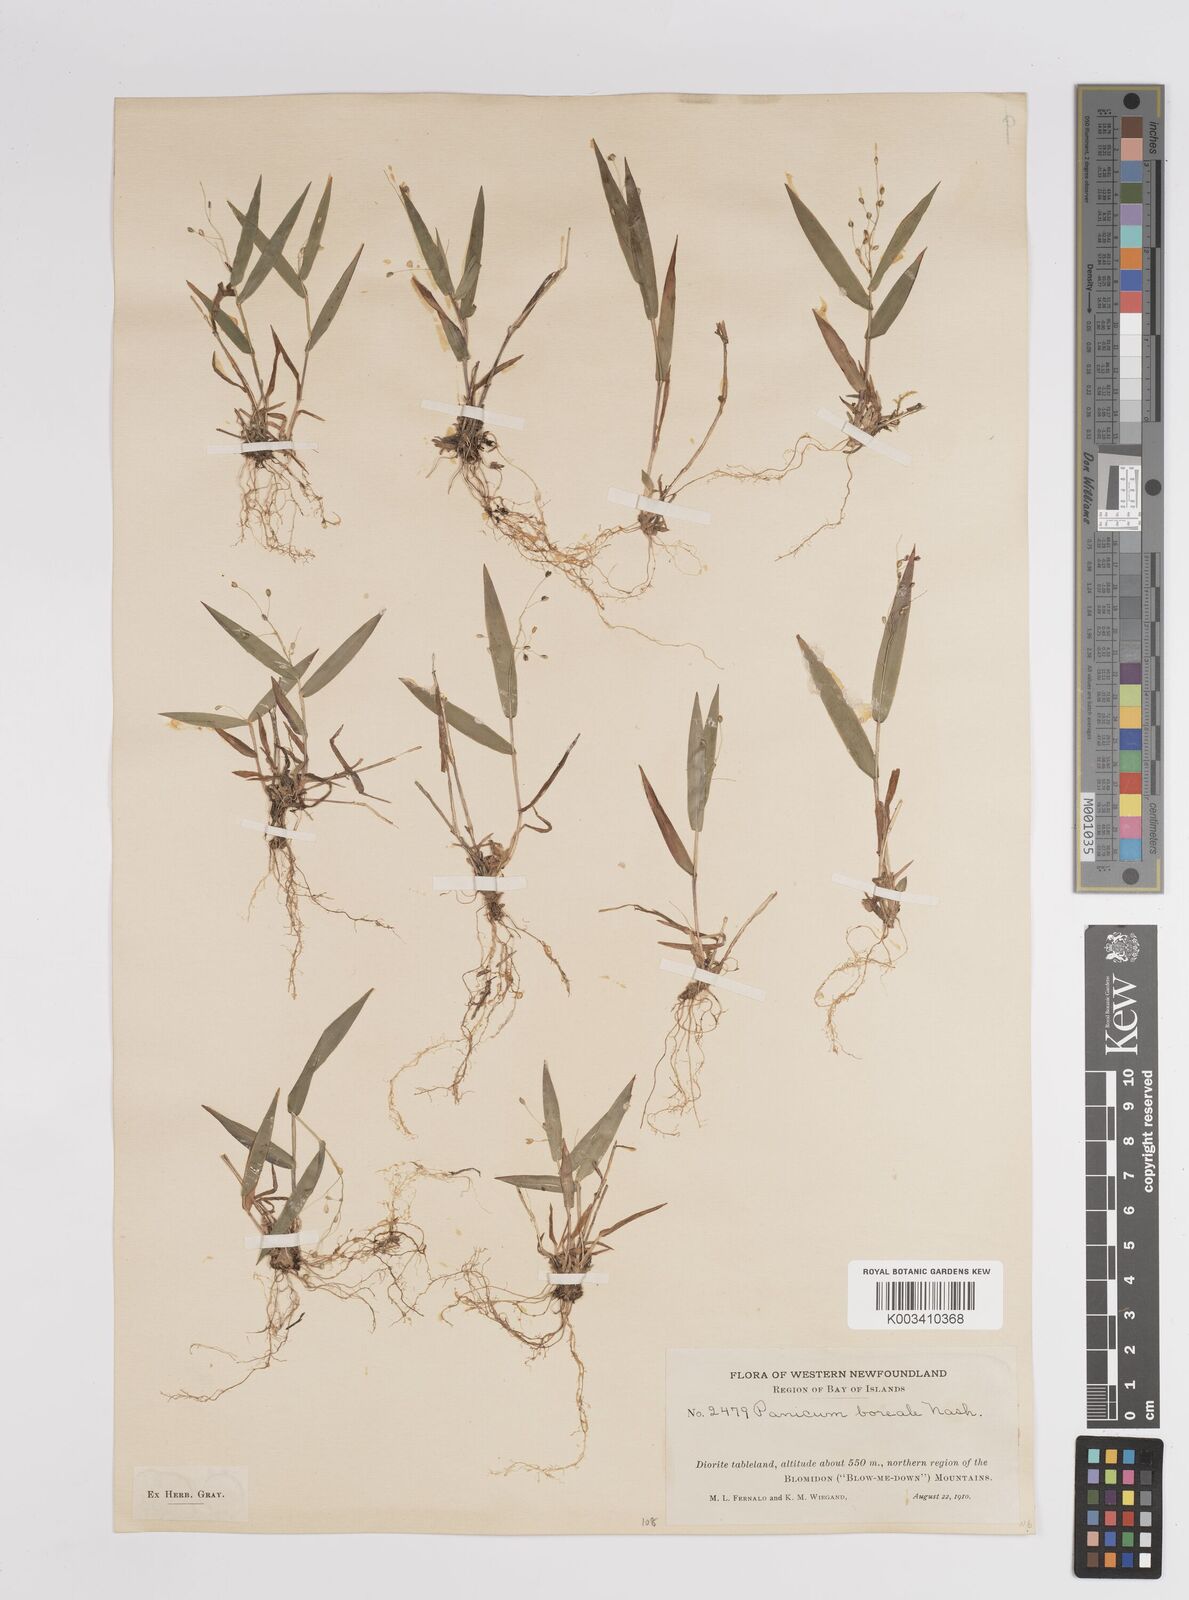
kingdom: Plantae
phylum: Tracheophyta
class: Liliopsida
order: Poales
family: Poaceae
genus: Dichanthelium
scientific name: Dichanthelium boreale
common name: Northern panicgrass
